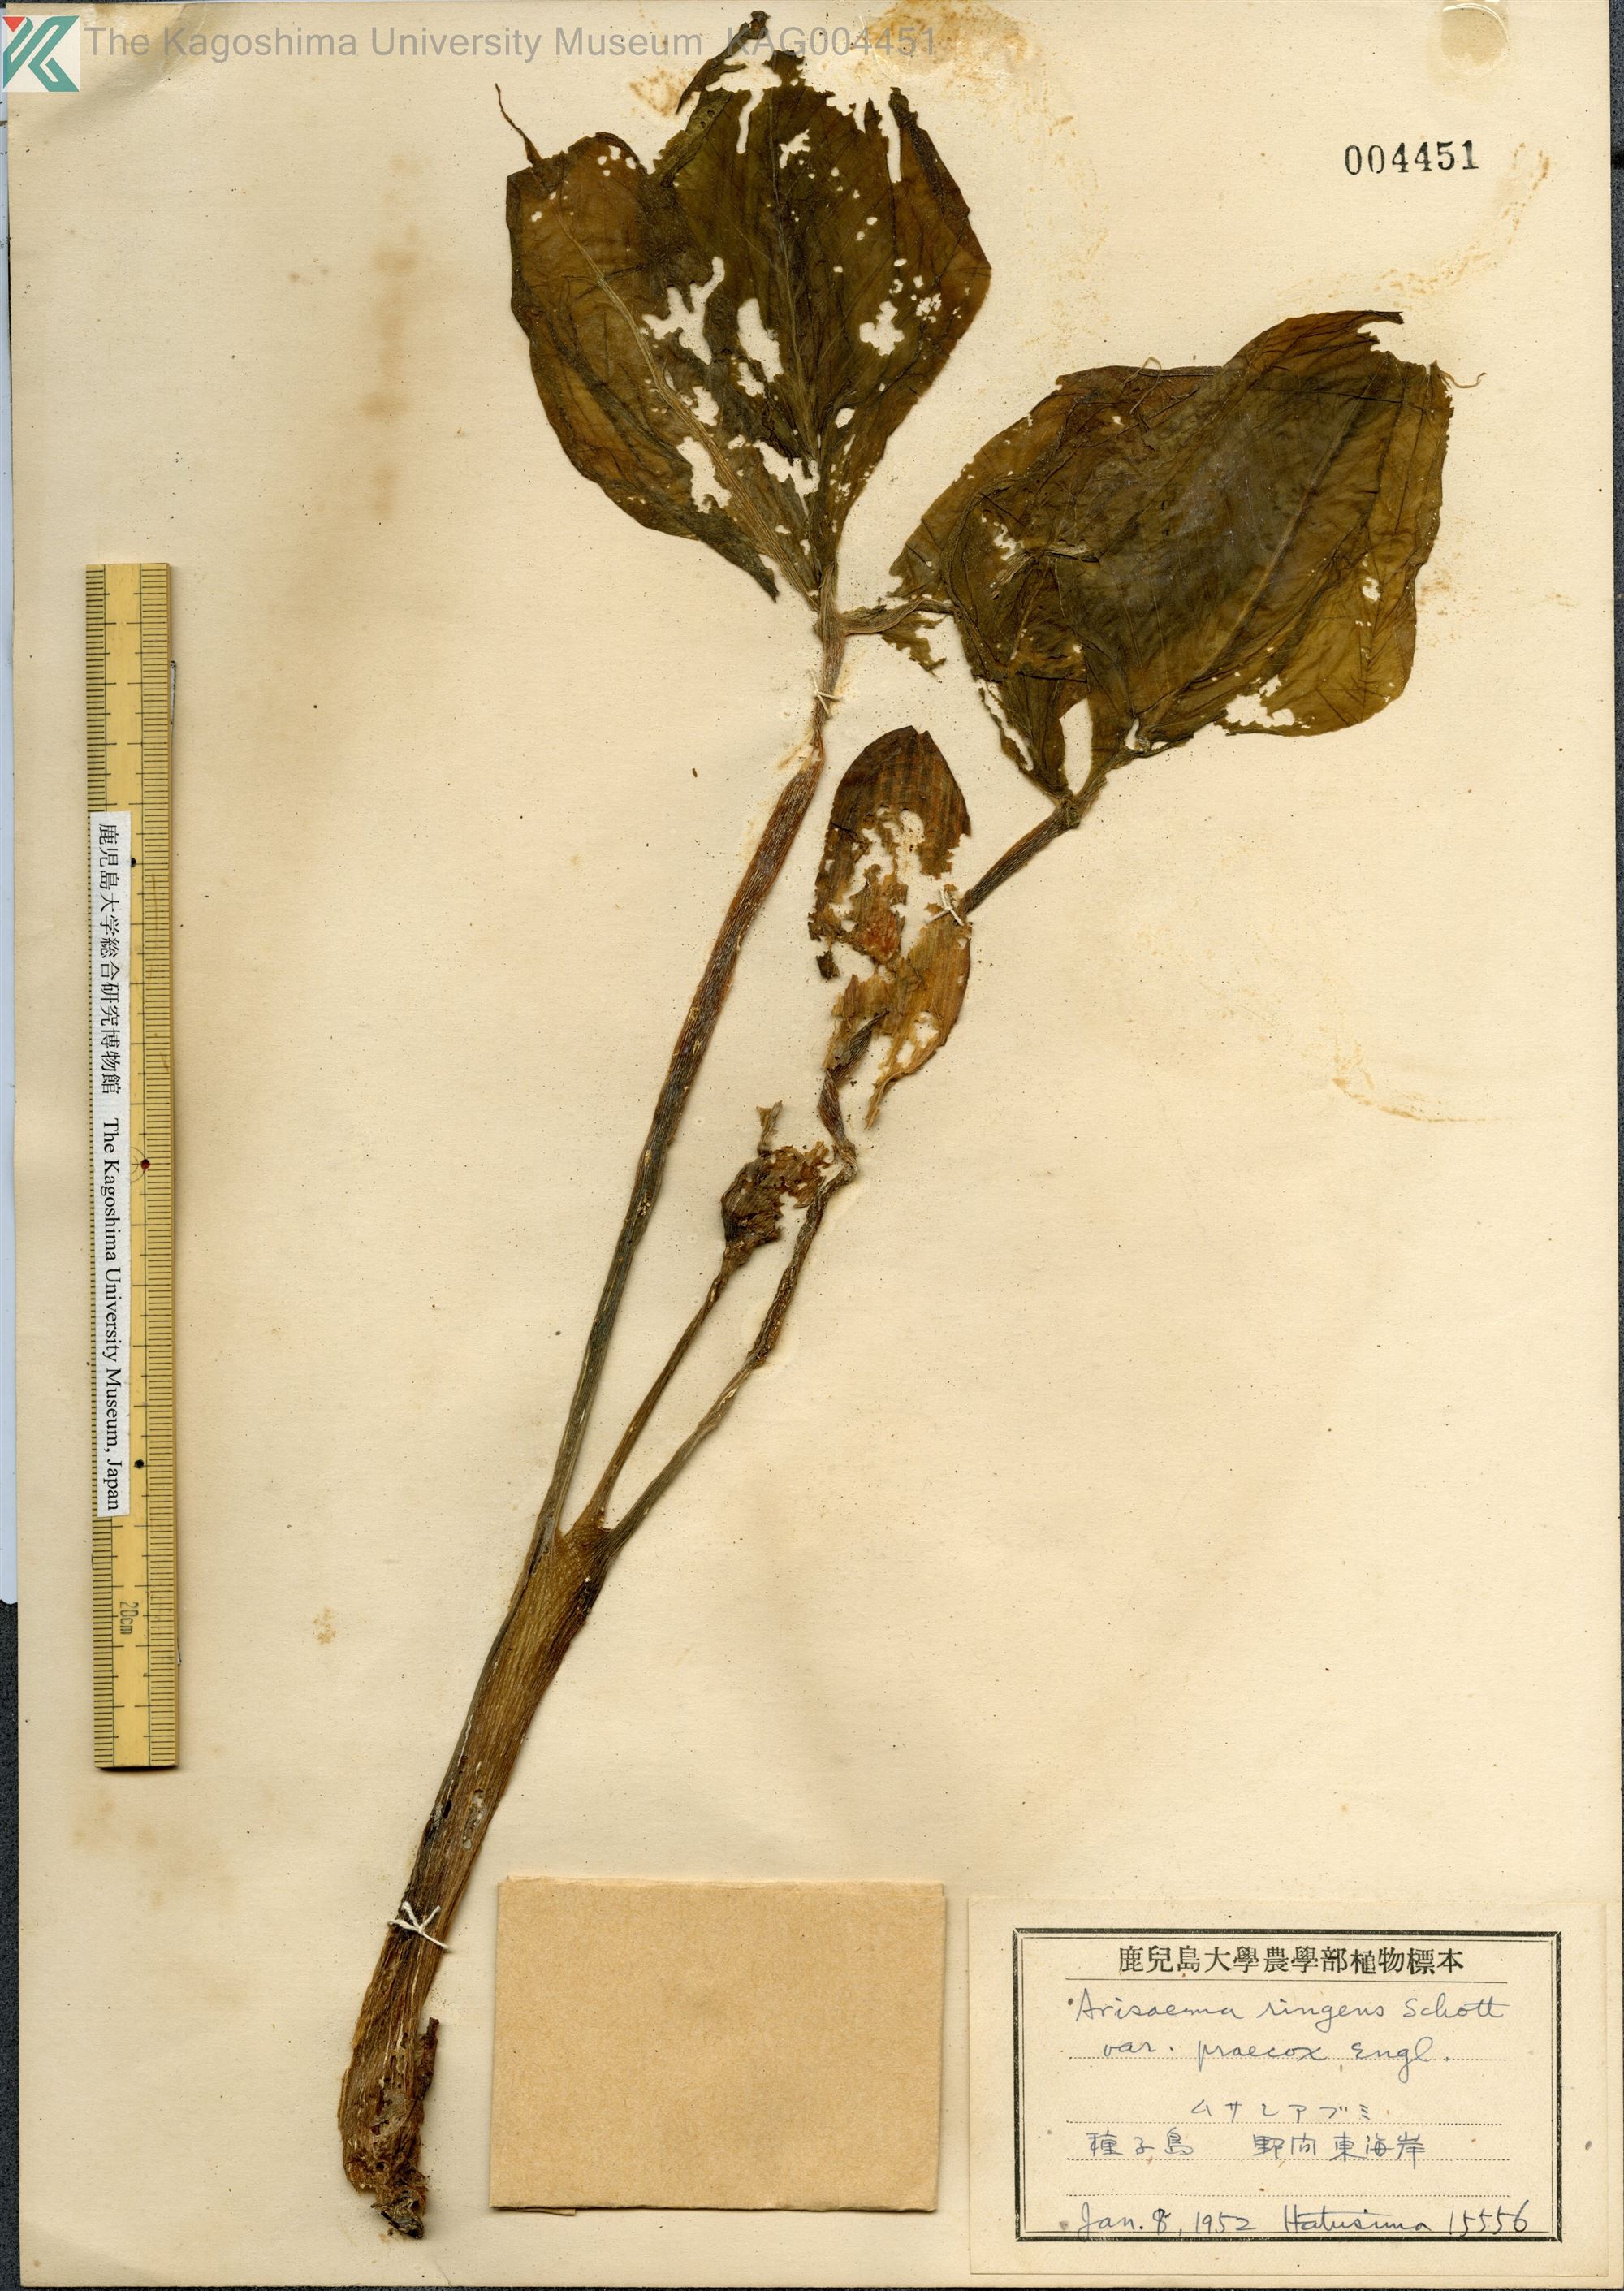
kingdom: Plantae
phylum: Tracheophyta
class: Liliopsida
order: Alismatales
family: Araceae
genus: Arisaema
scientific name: Arisaema ringens
